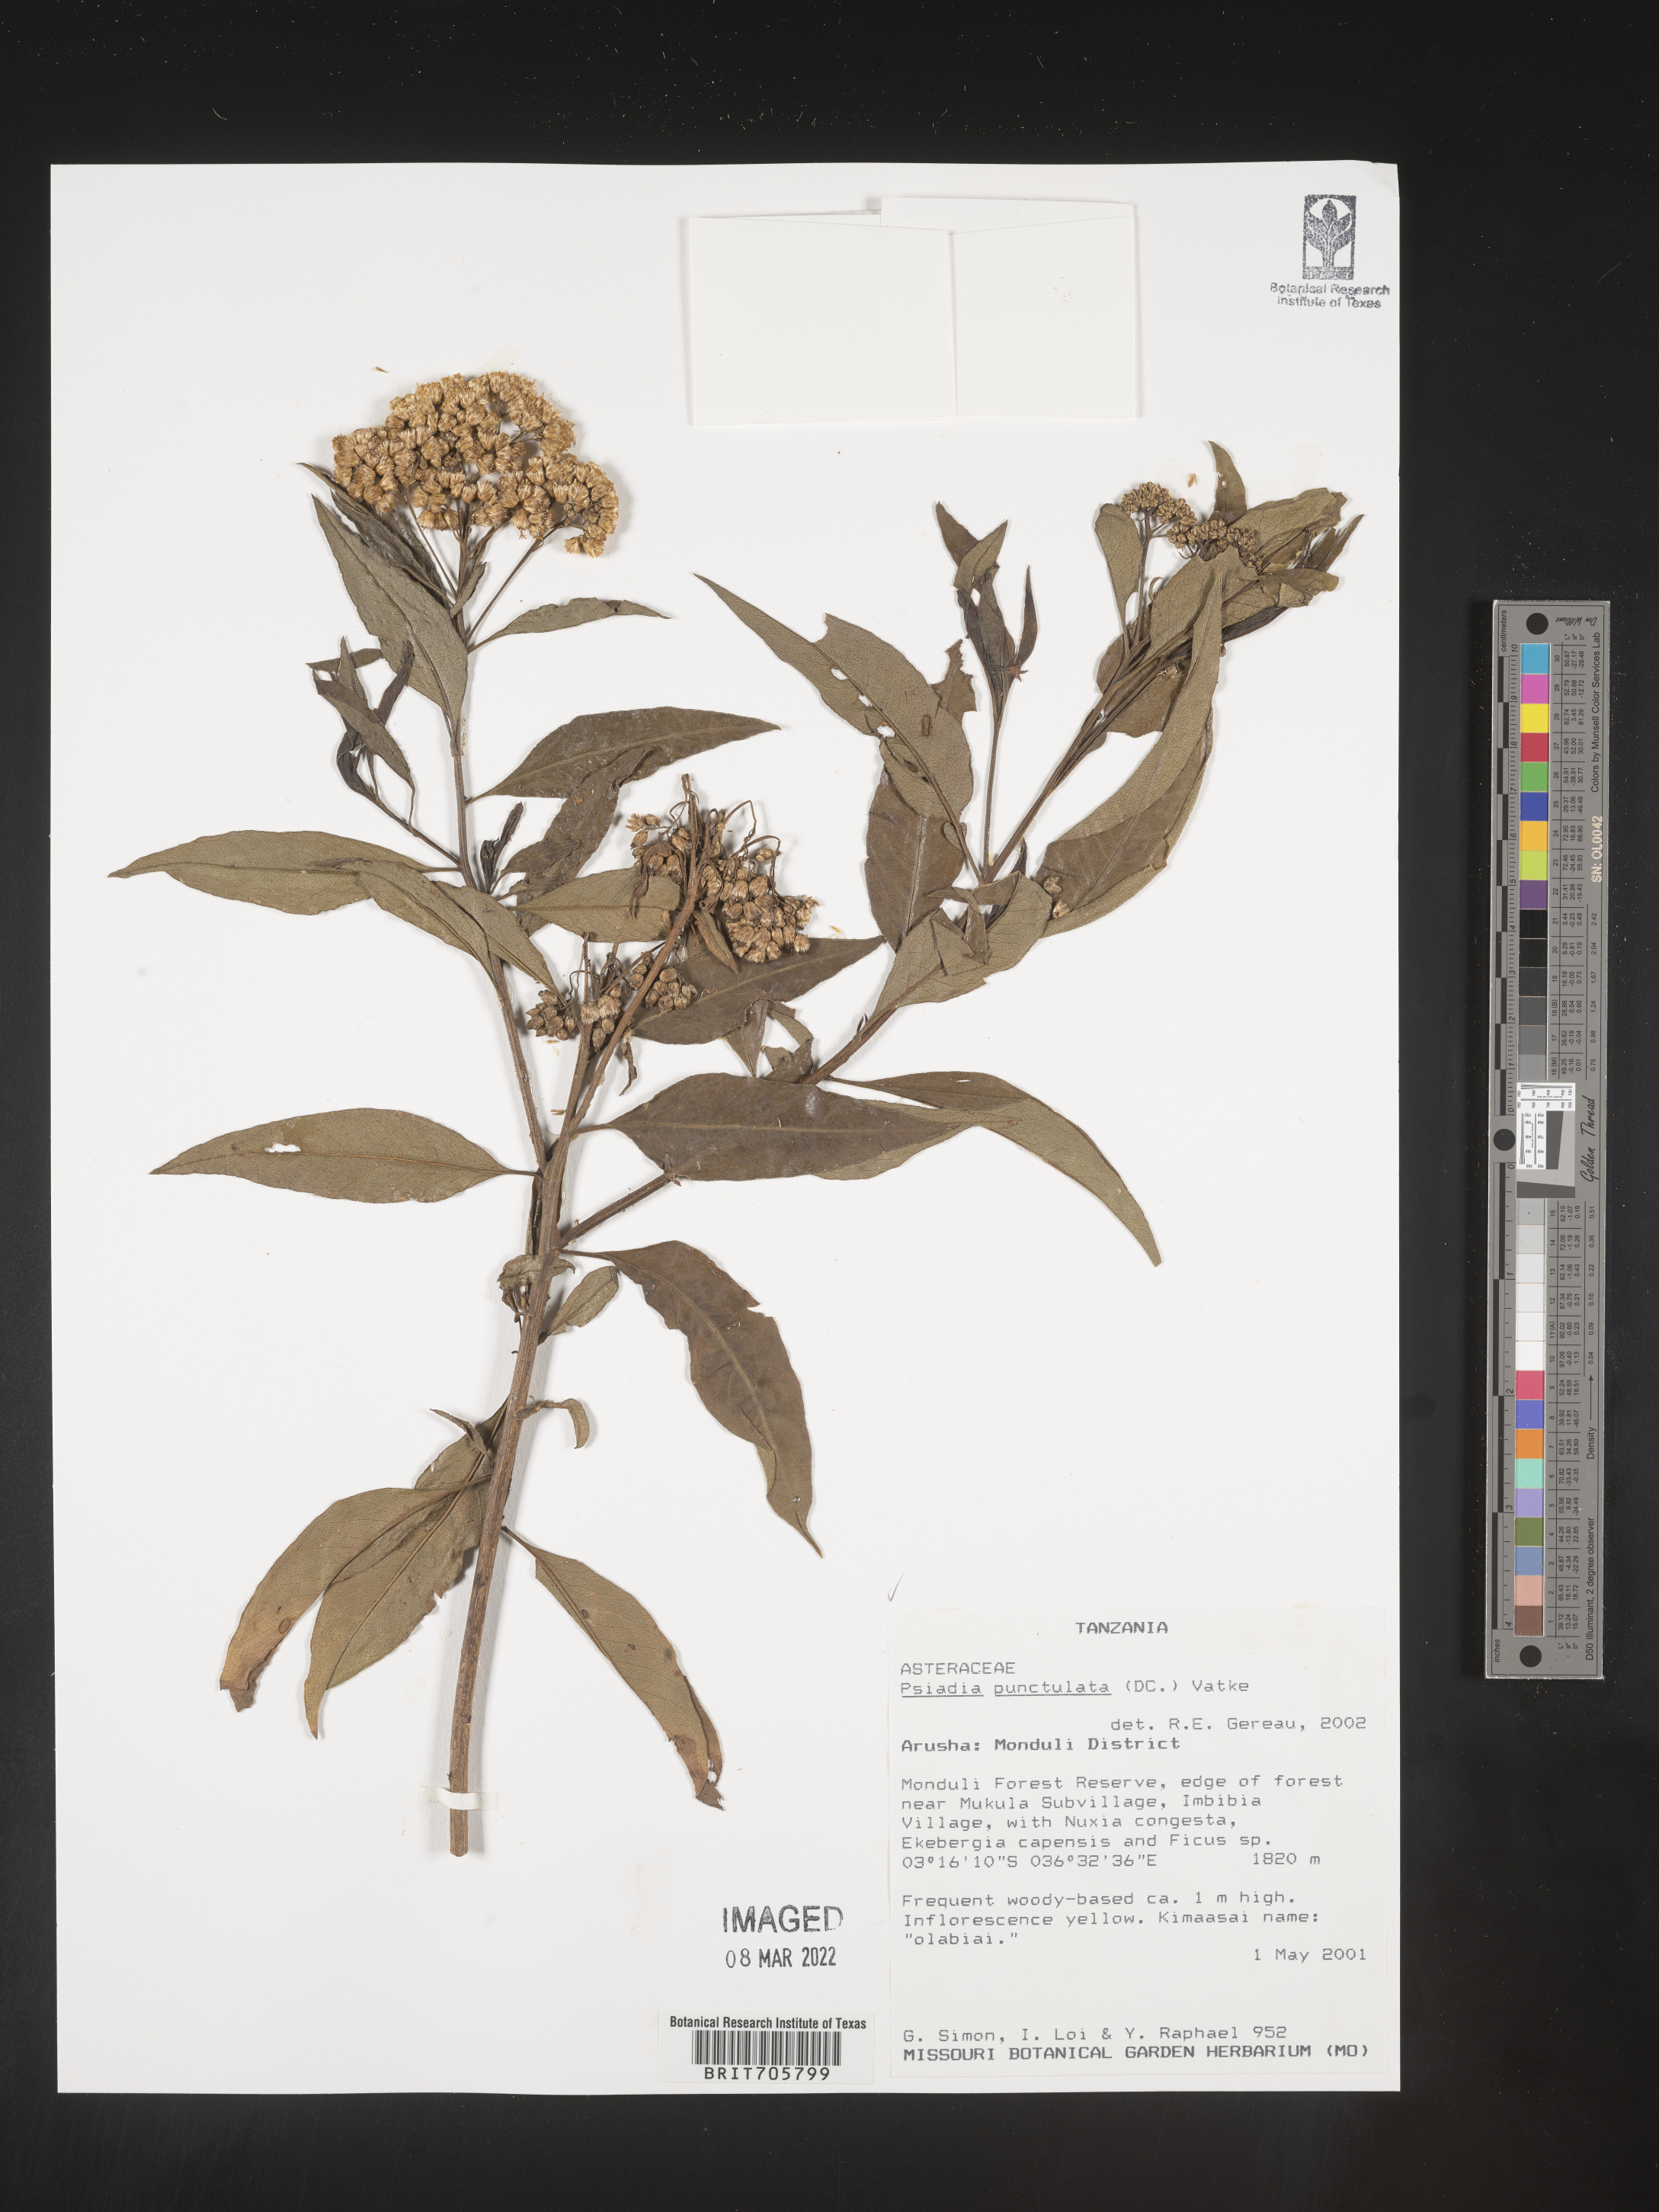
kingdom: Plantae
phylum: Tracheophyta
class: Magnoliopsida
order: Asterales
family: Asteraceae
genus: Psiadia
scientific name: Psiadia
